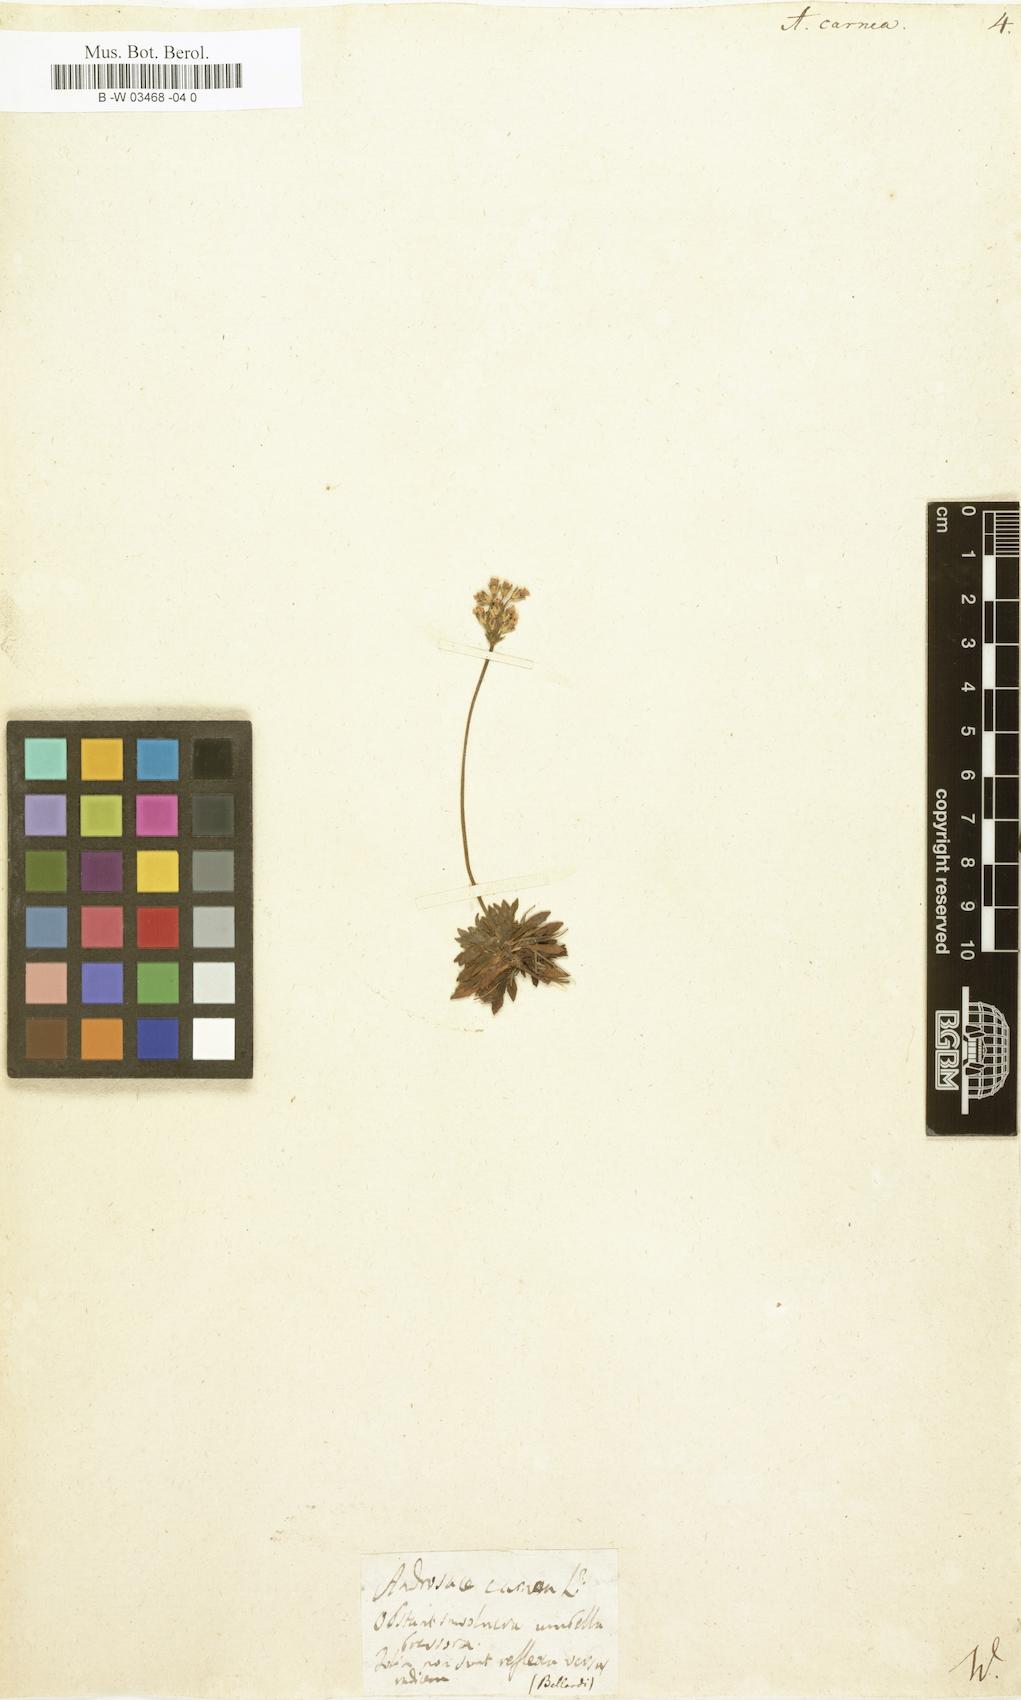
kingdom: Plantae
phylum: Tracheophyta
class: Magnoliopsida
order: Ericales
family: Primulaceae
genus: Androsace
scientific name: Androsace laggeri
